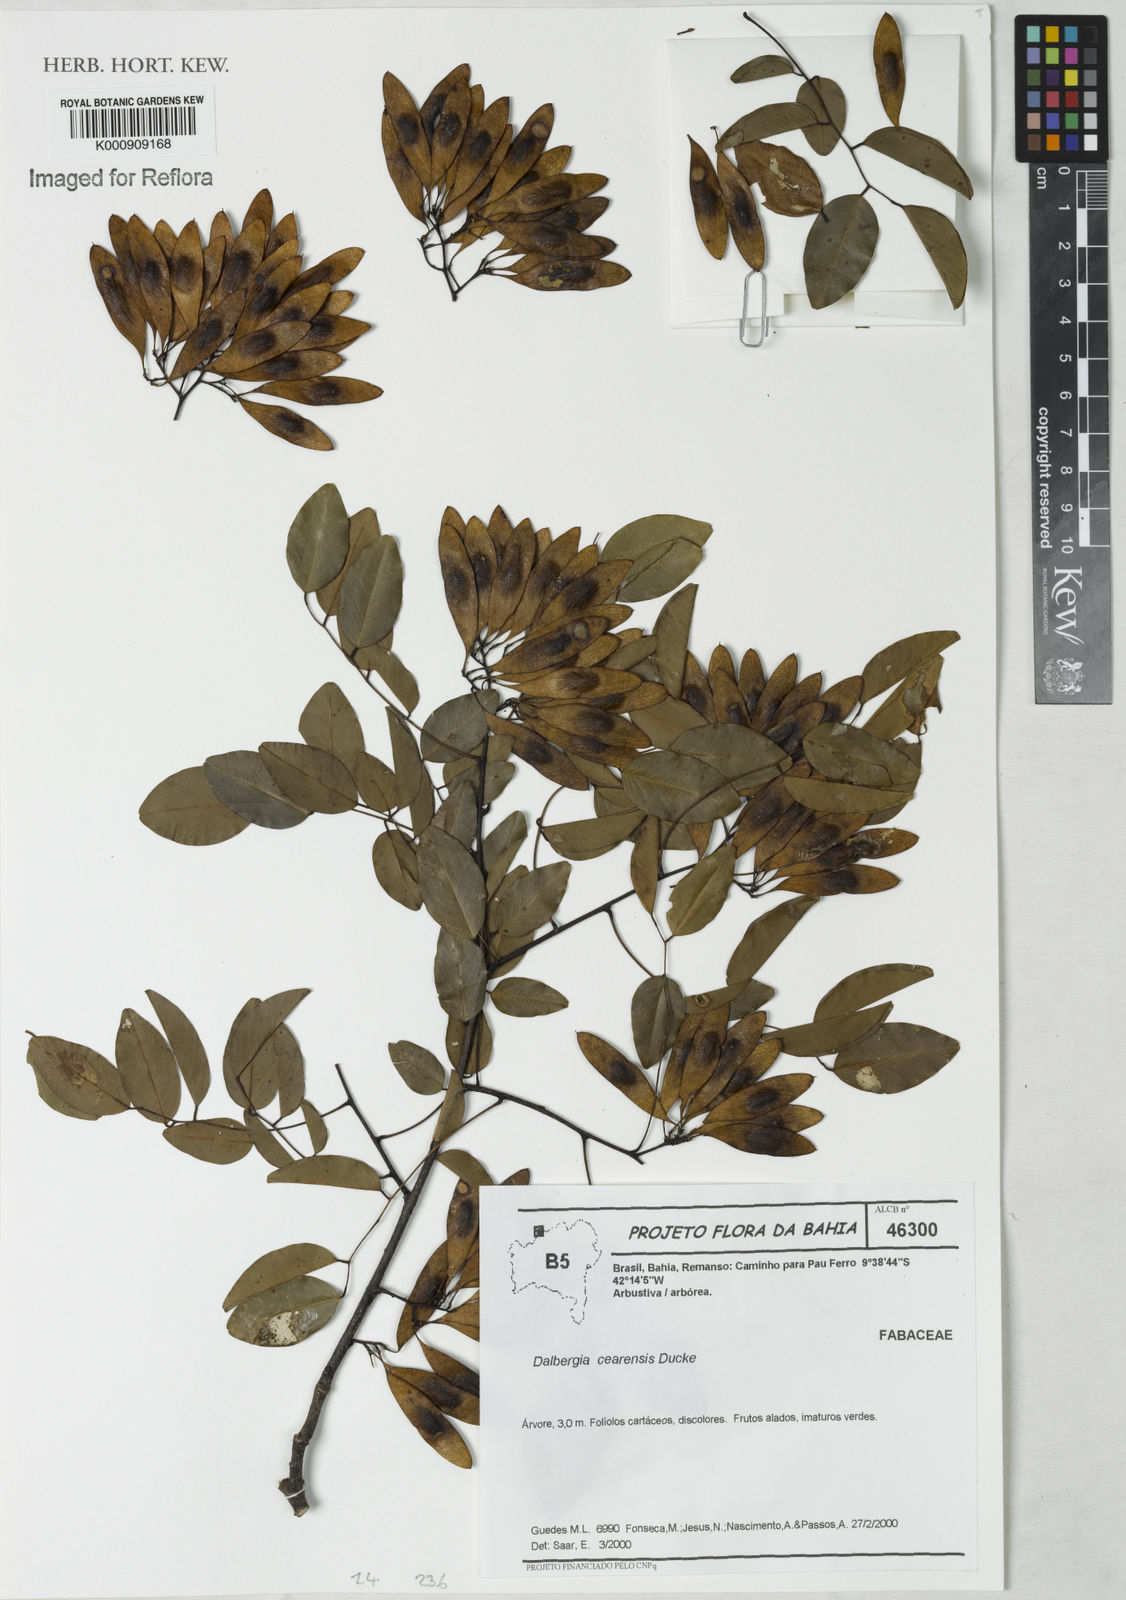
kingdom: Plantae
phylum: Tracheophyta
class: Magnoliopsida
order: Fabales
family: Fabaceae
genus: Dalbergia
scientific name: Dalbergia cearensis
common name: Brazilian-king-wood
